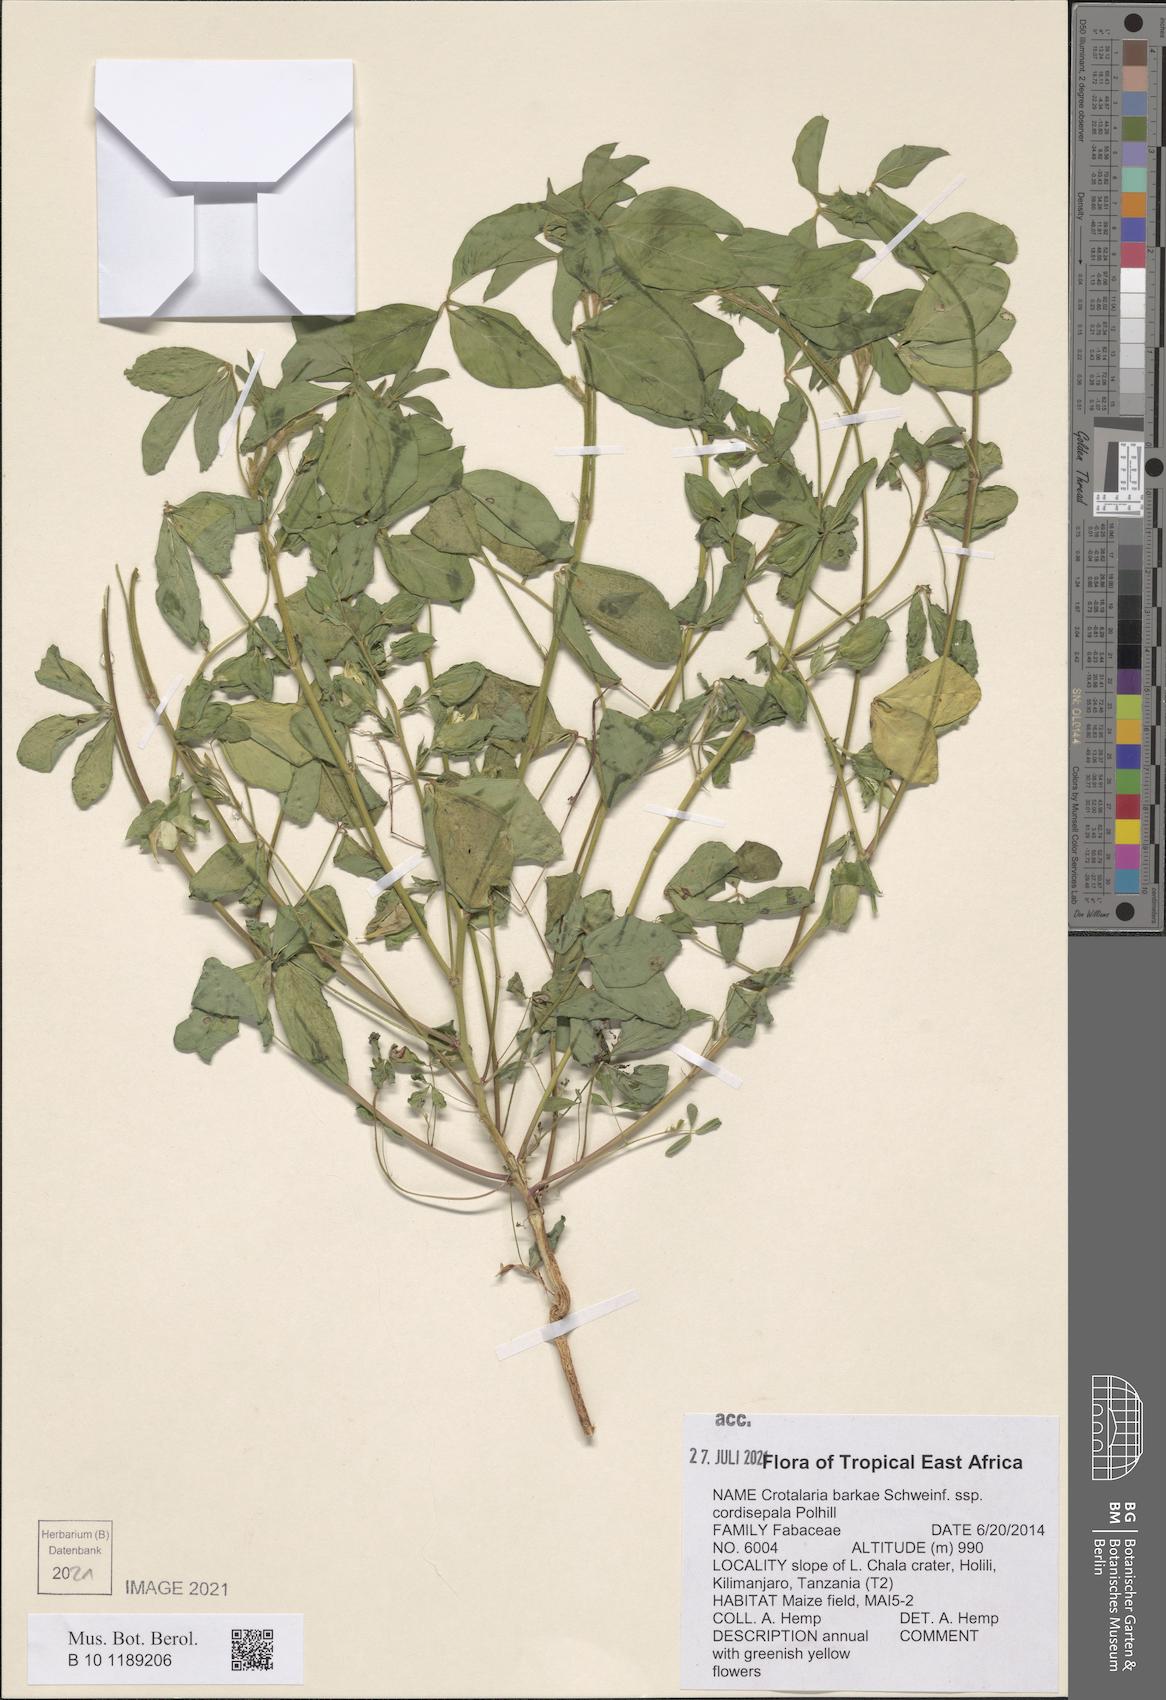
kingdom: Plantae
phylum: Tracheophyta
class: Magnoliopsida
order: Fabales
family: Fabaceae
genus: Crotalaria
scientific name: Crotalaria barkae
